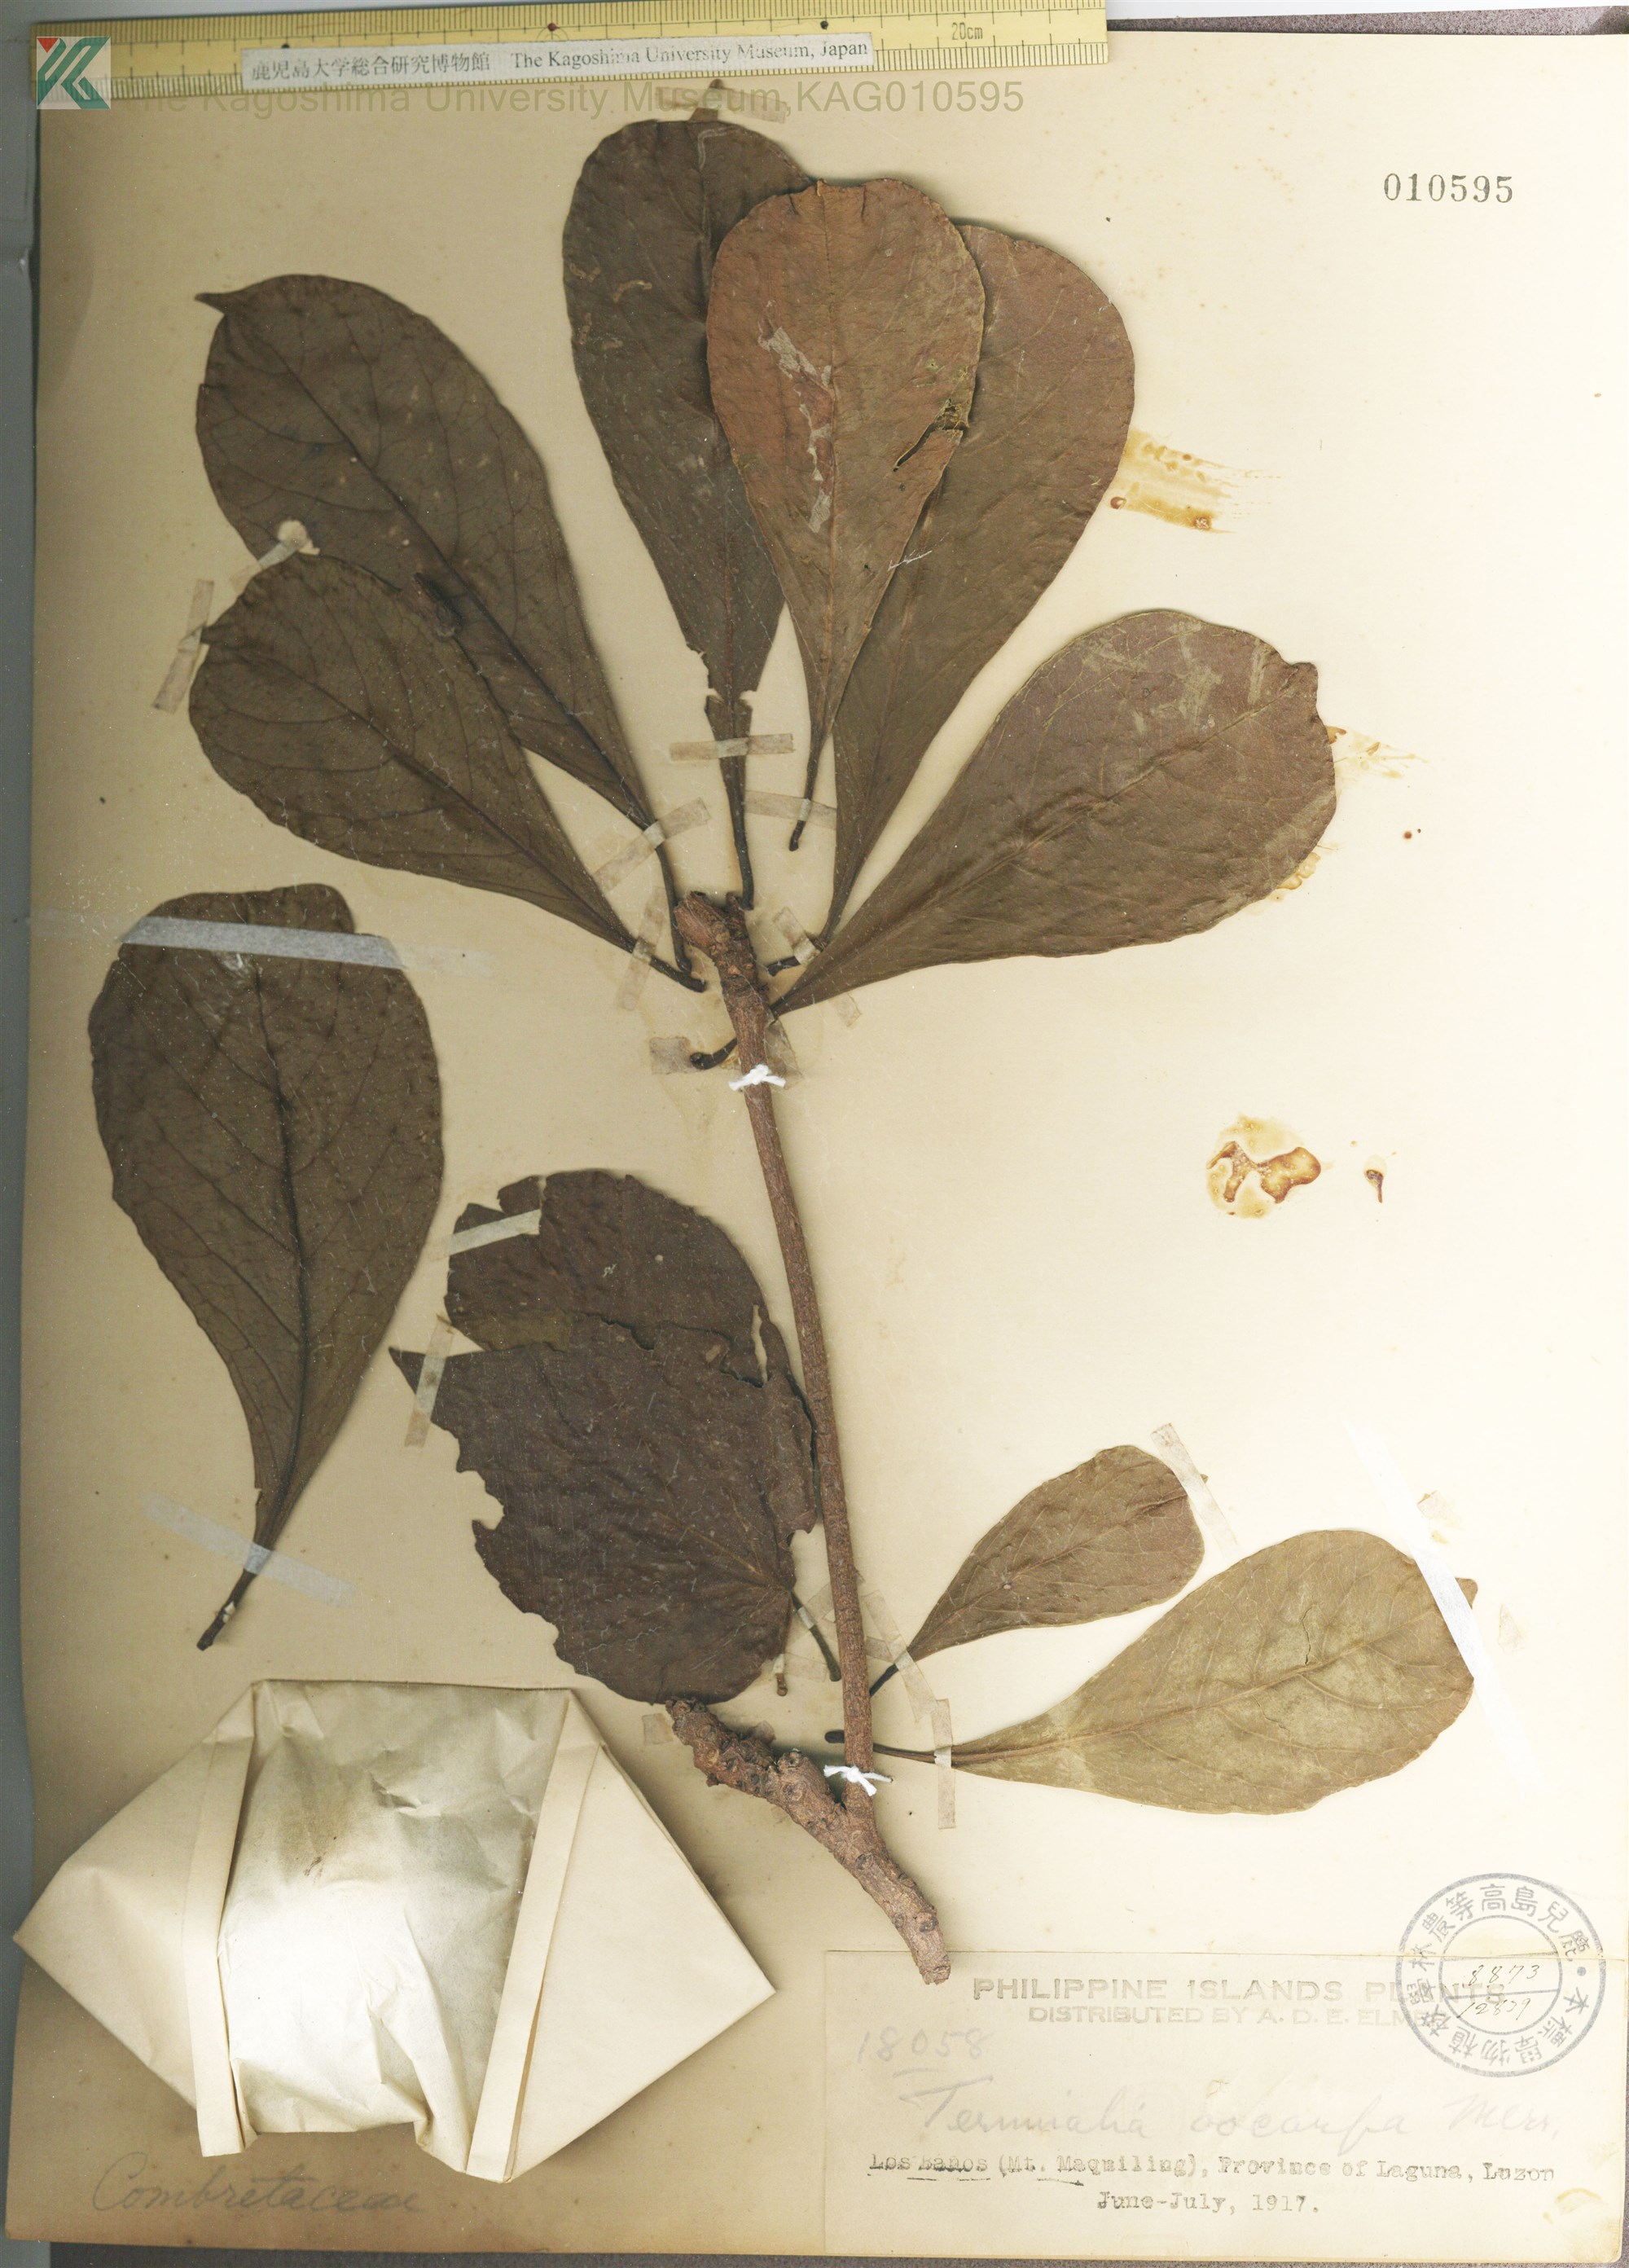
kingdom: Plantae
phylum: Tracheophyta
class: Magnoliopsida
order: Myrtales
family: Combretaceae
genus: Terminalia
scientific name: Terminalia foetidissima
